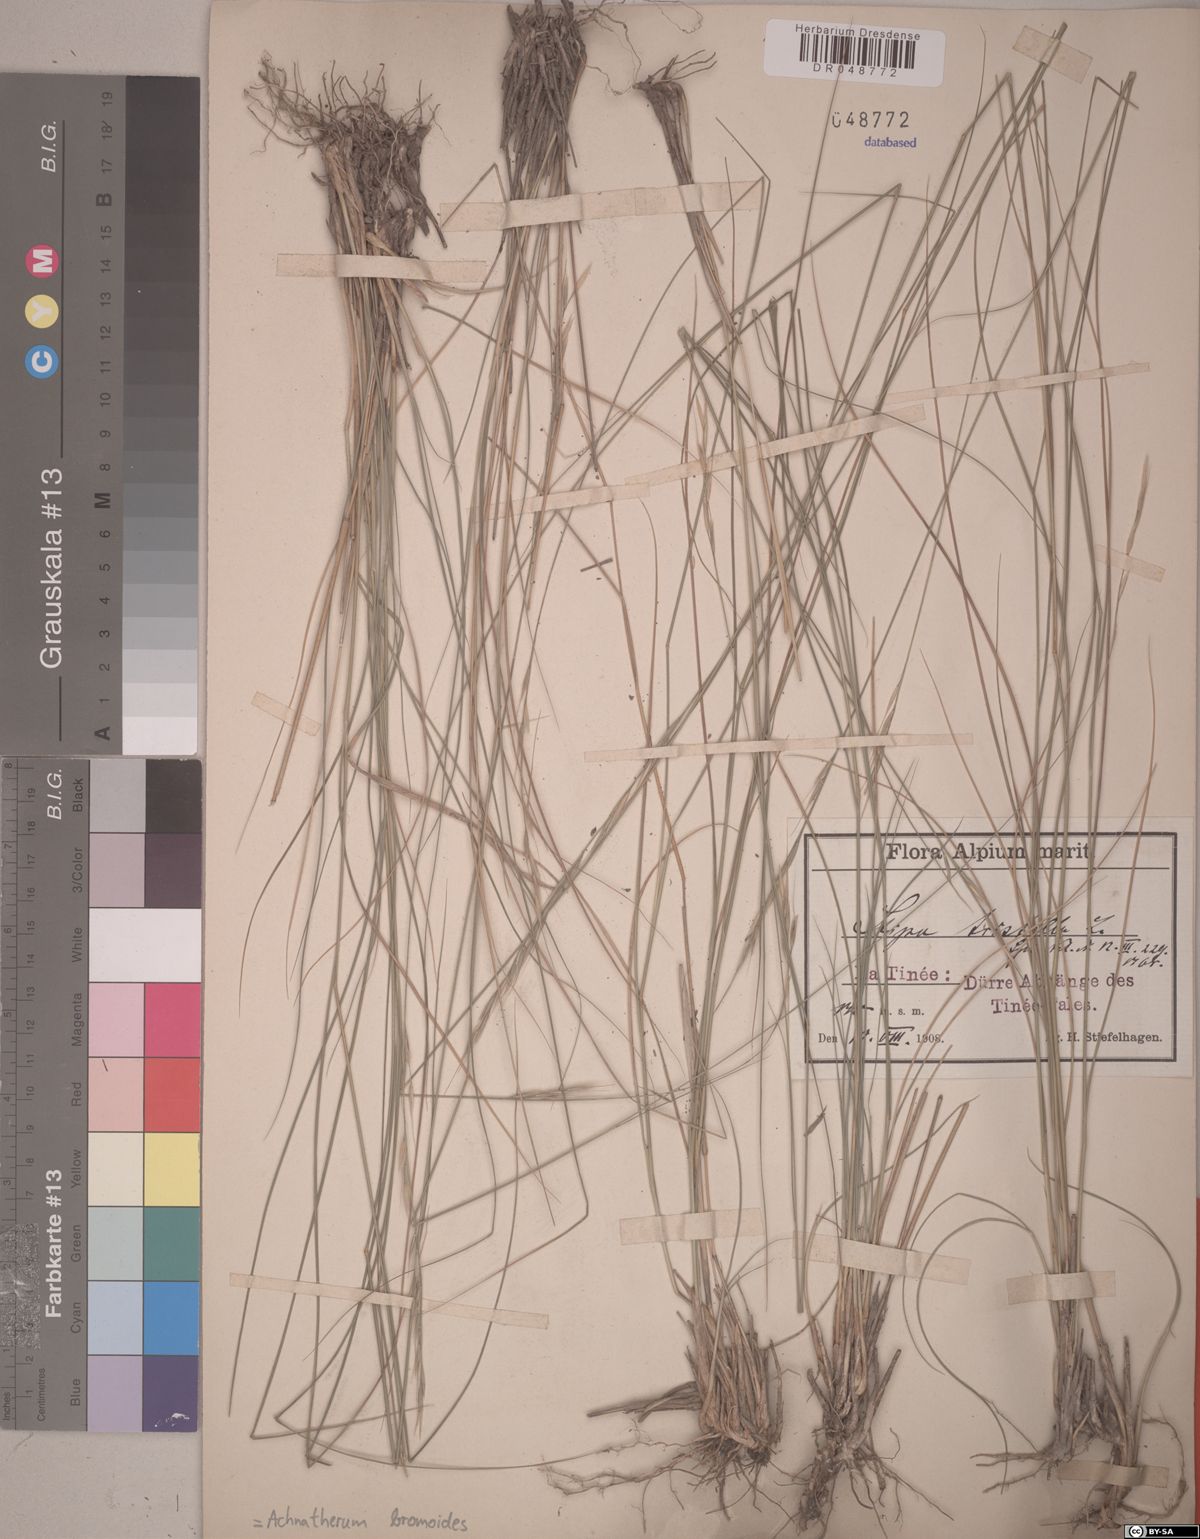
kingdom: Plantae
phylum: Tracheophyta
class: Liliopsida
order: Poales
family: Poaceae
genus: Achnatherum
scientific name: Achnatherum bromoides
